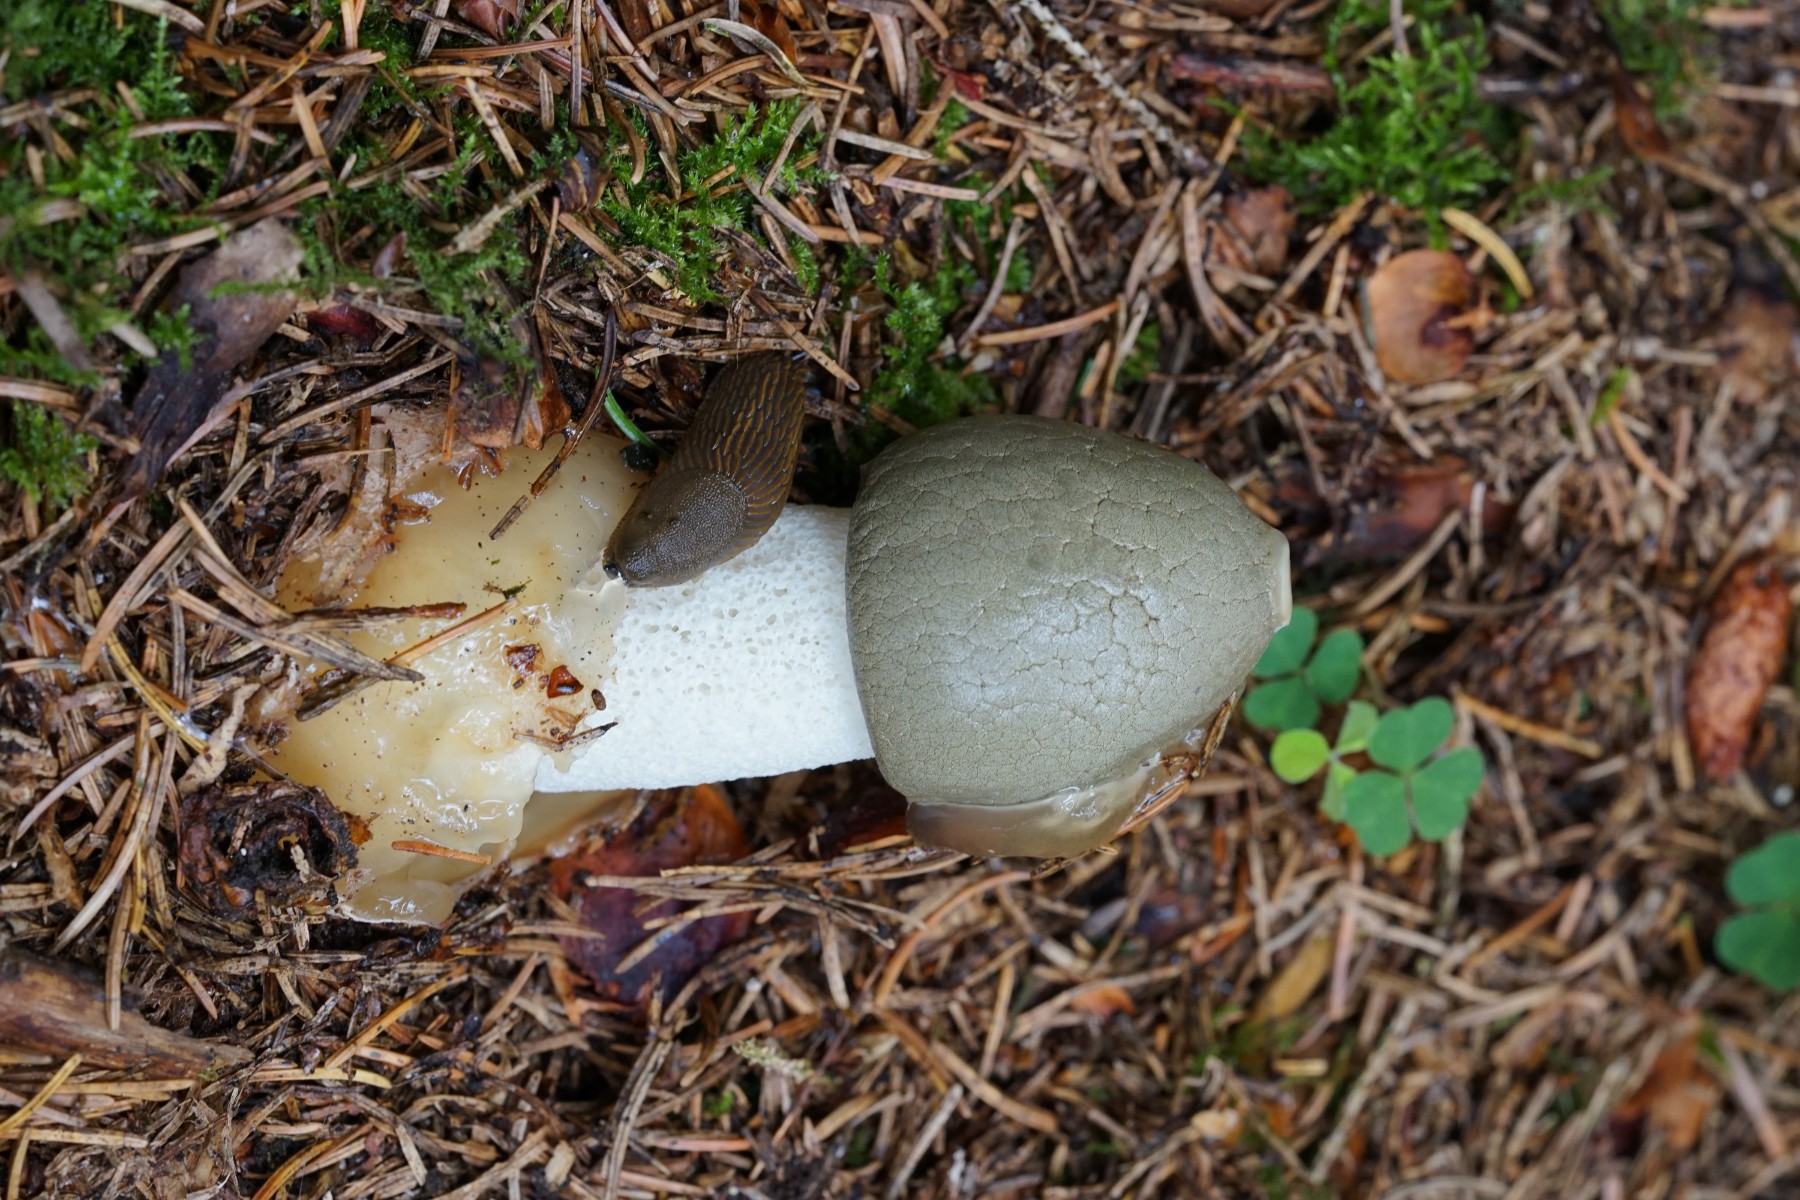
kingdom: Fungi
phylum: Basidiomycota
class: Agaricomycetes
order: Phallales
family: Phallaceae
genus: Phallus
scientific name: Phallus impudicus
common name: almindelig stinksvamp
